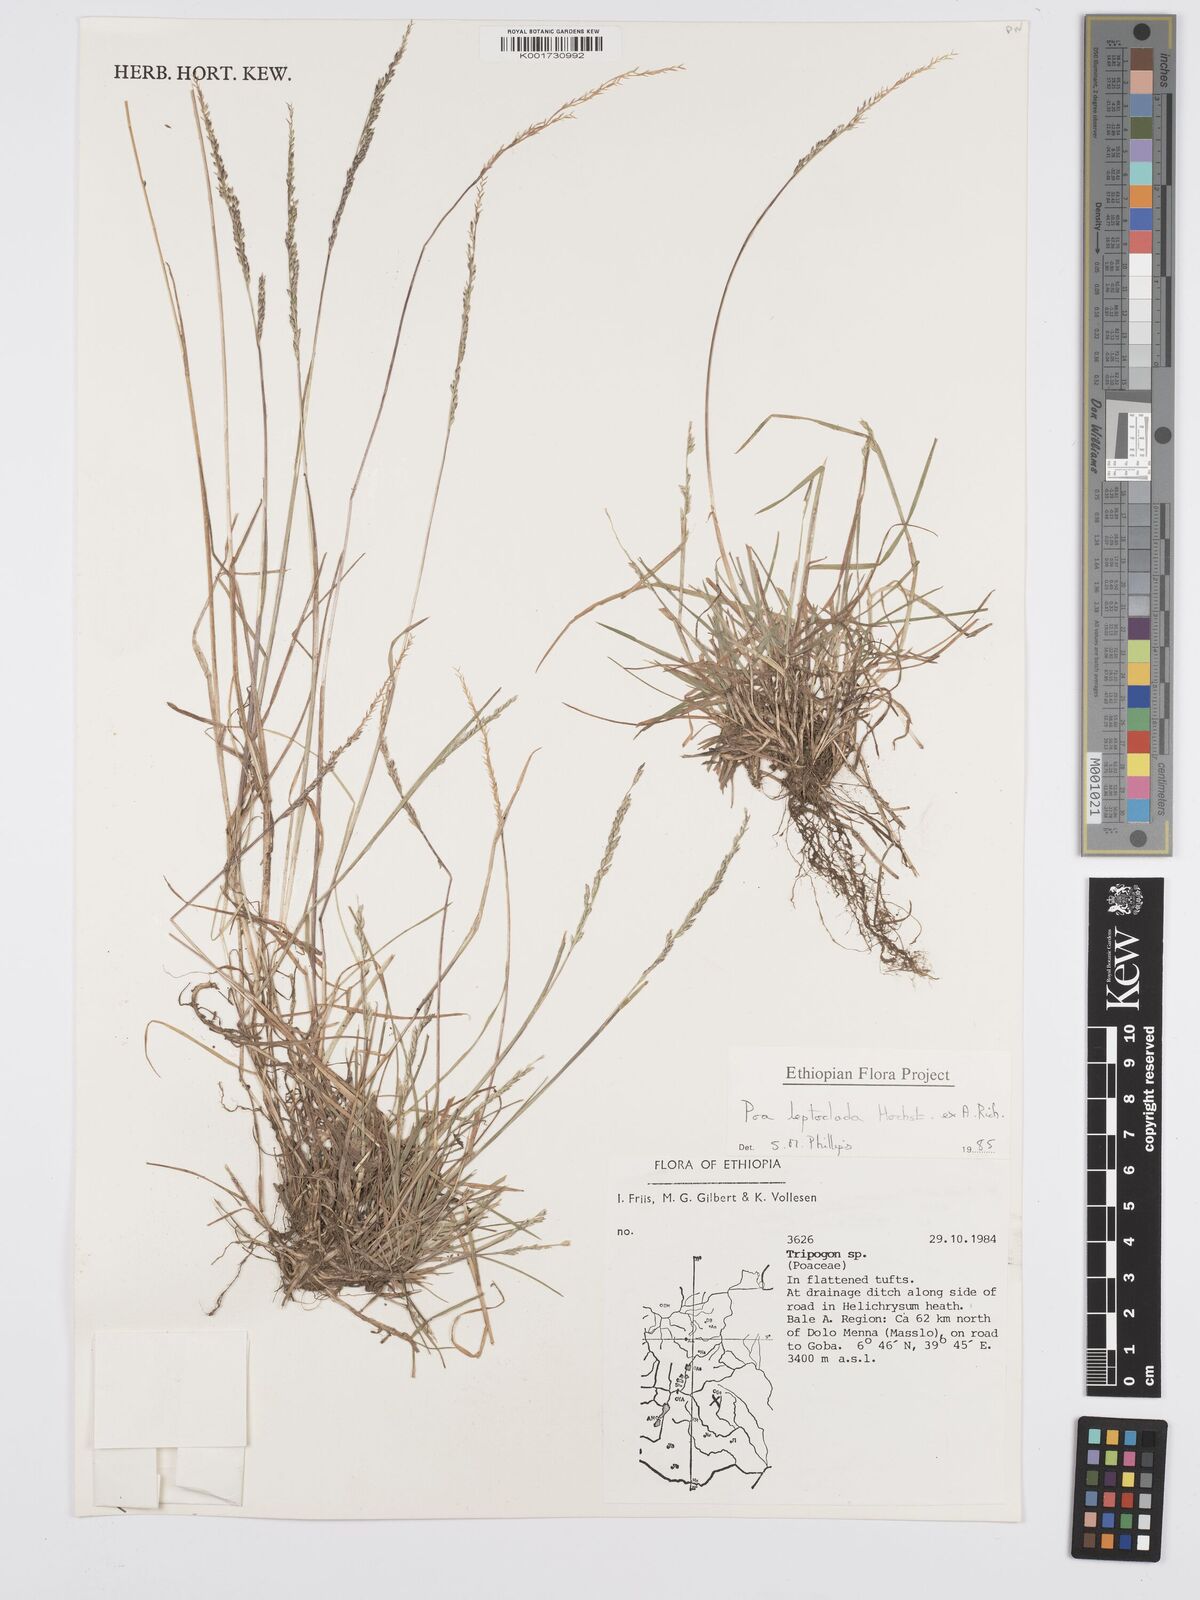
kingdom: Plantae
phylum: Tracheophyta
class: Liliopsida
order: Poales
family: Poaceae
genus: Poa
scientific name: Poa leptoclada
